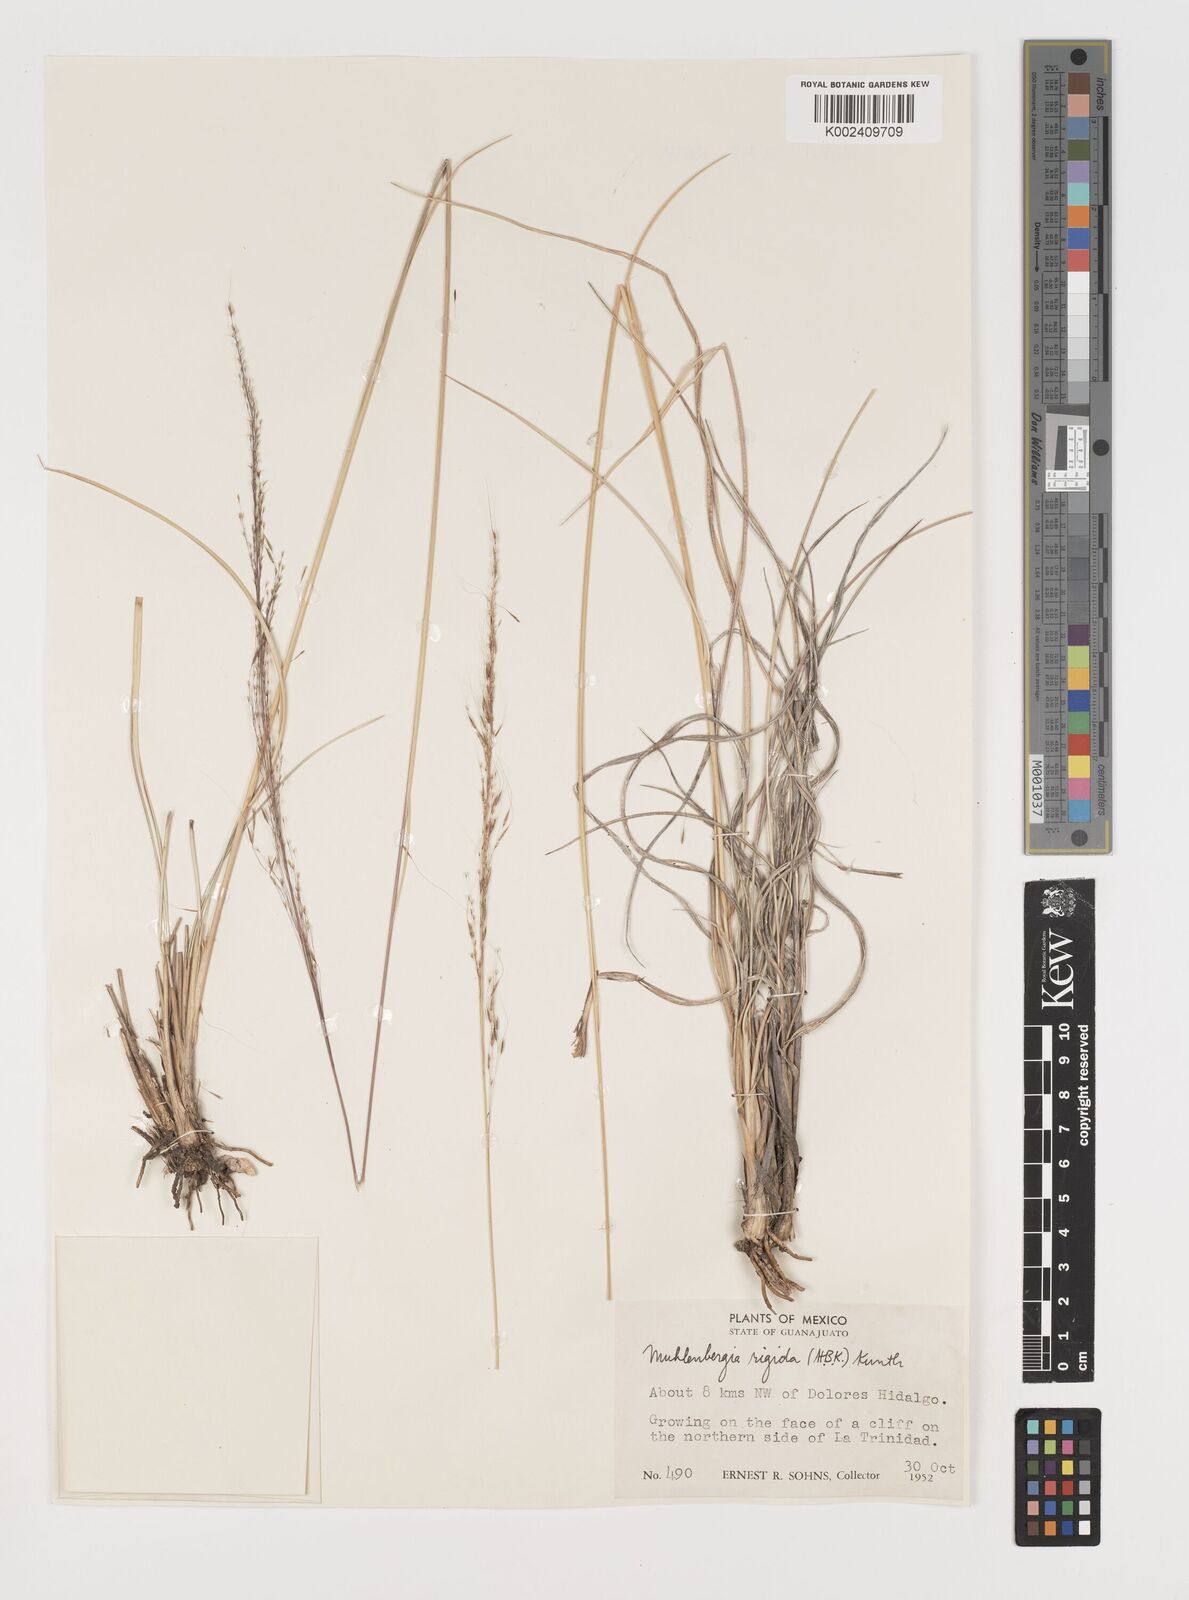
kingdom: Plantae
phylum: Tracheophyta
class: Liliopsida
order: Poales
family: Poaceae
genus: Muhlenbergia
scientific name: Muhlenbergia rigida
